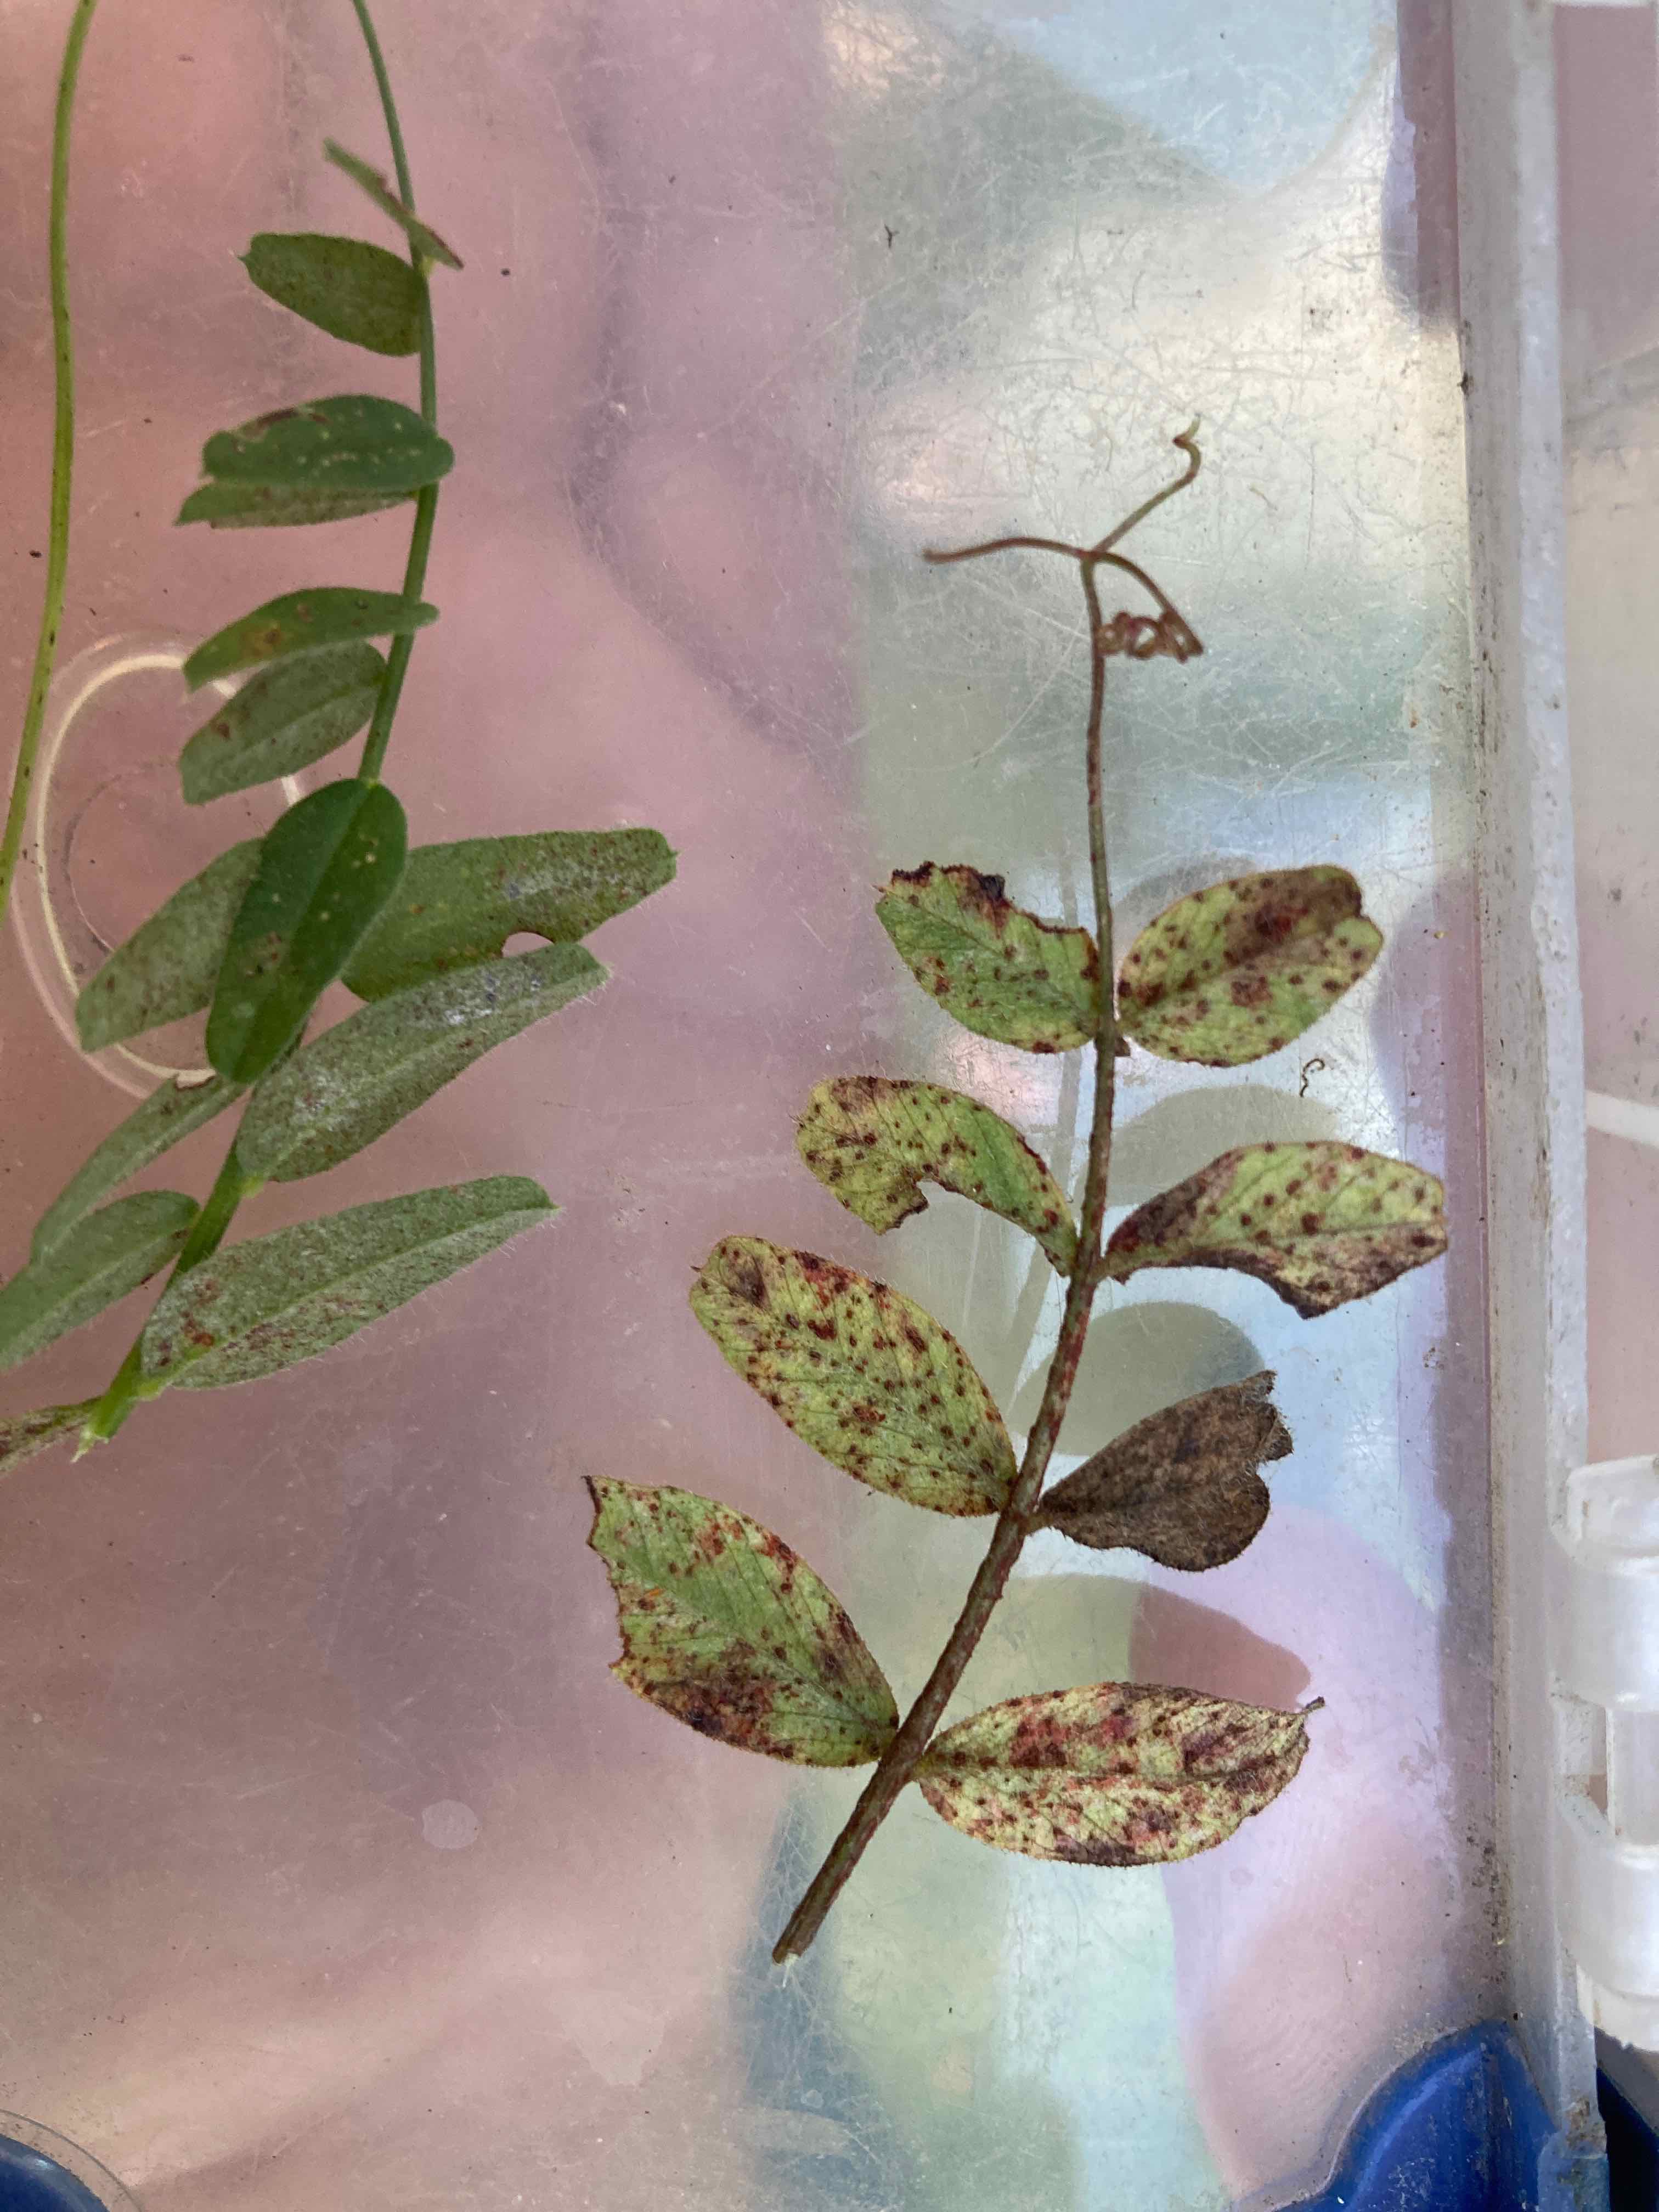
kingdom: Fungi
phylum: Basidiomycota
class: Pucciniomycetes
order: Pucciniales
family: Pucciniaceae
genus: Uromyces
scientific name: Uromyces viciae-fabae
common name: Broad bean rust
